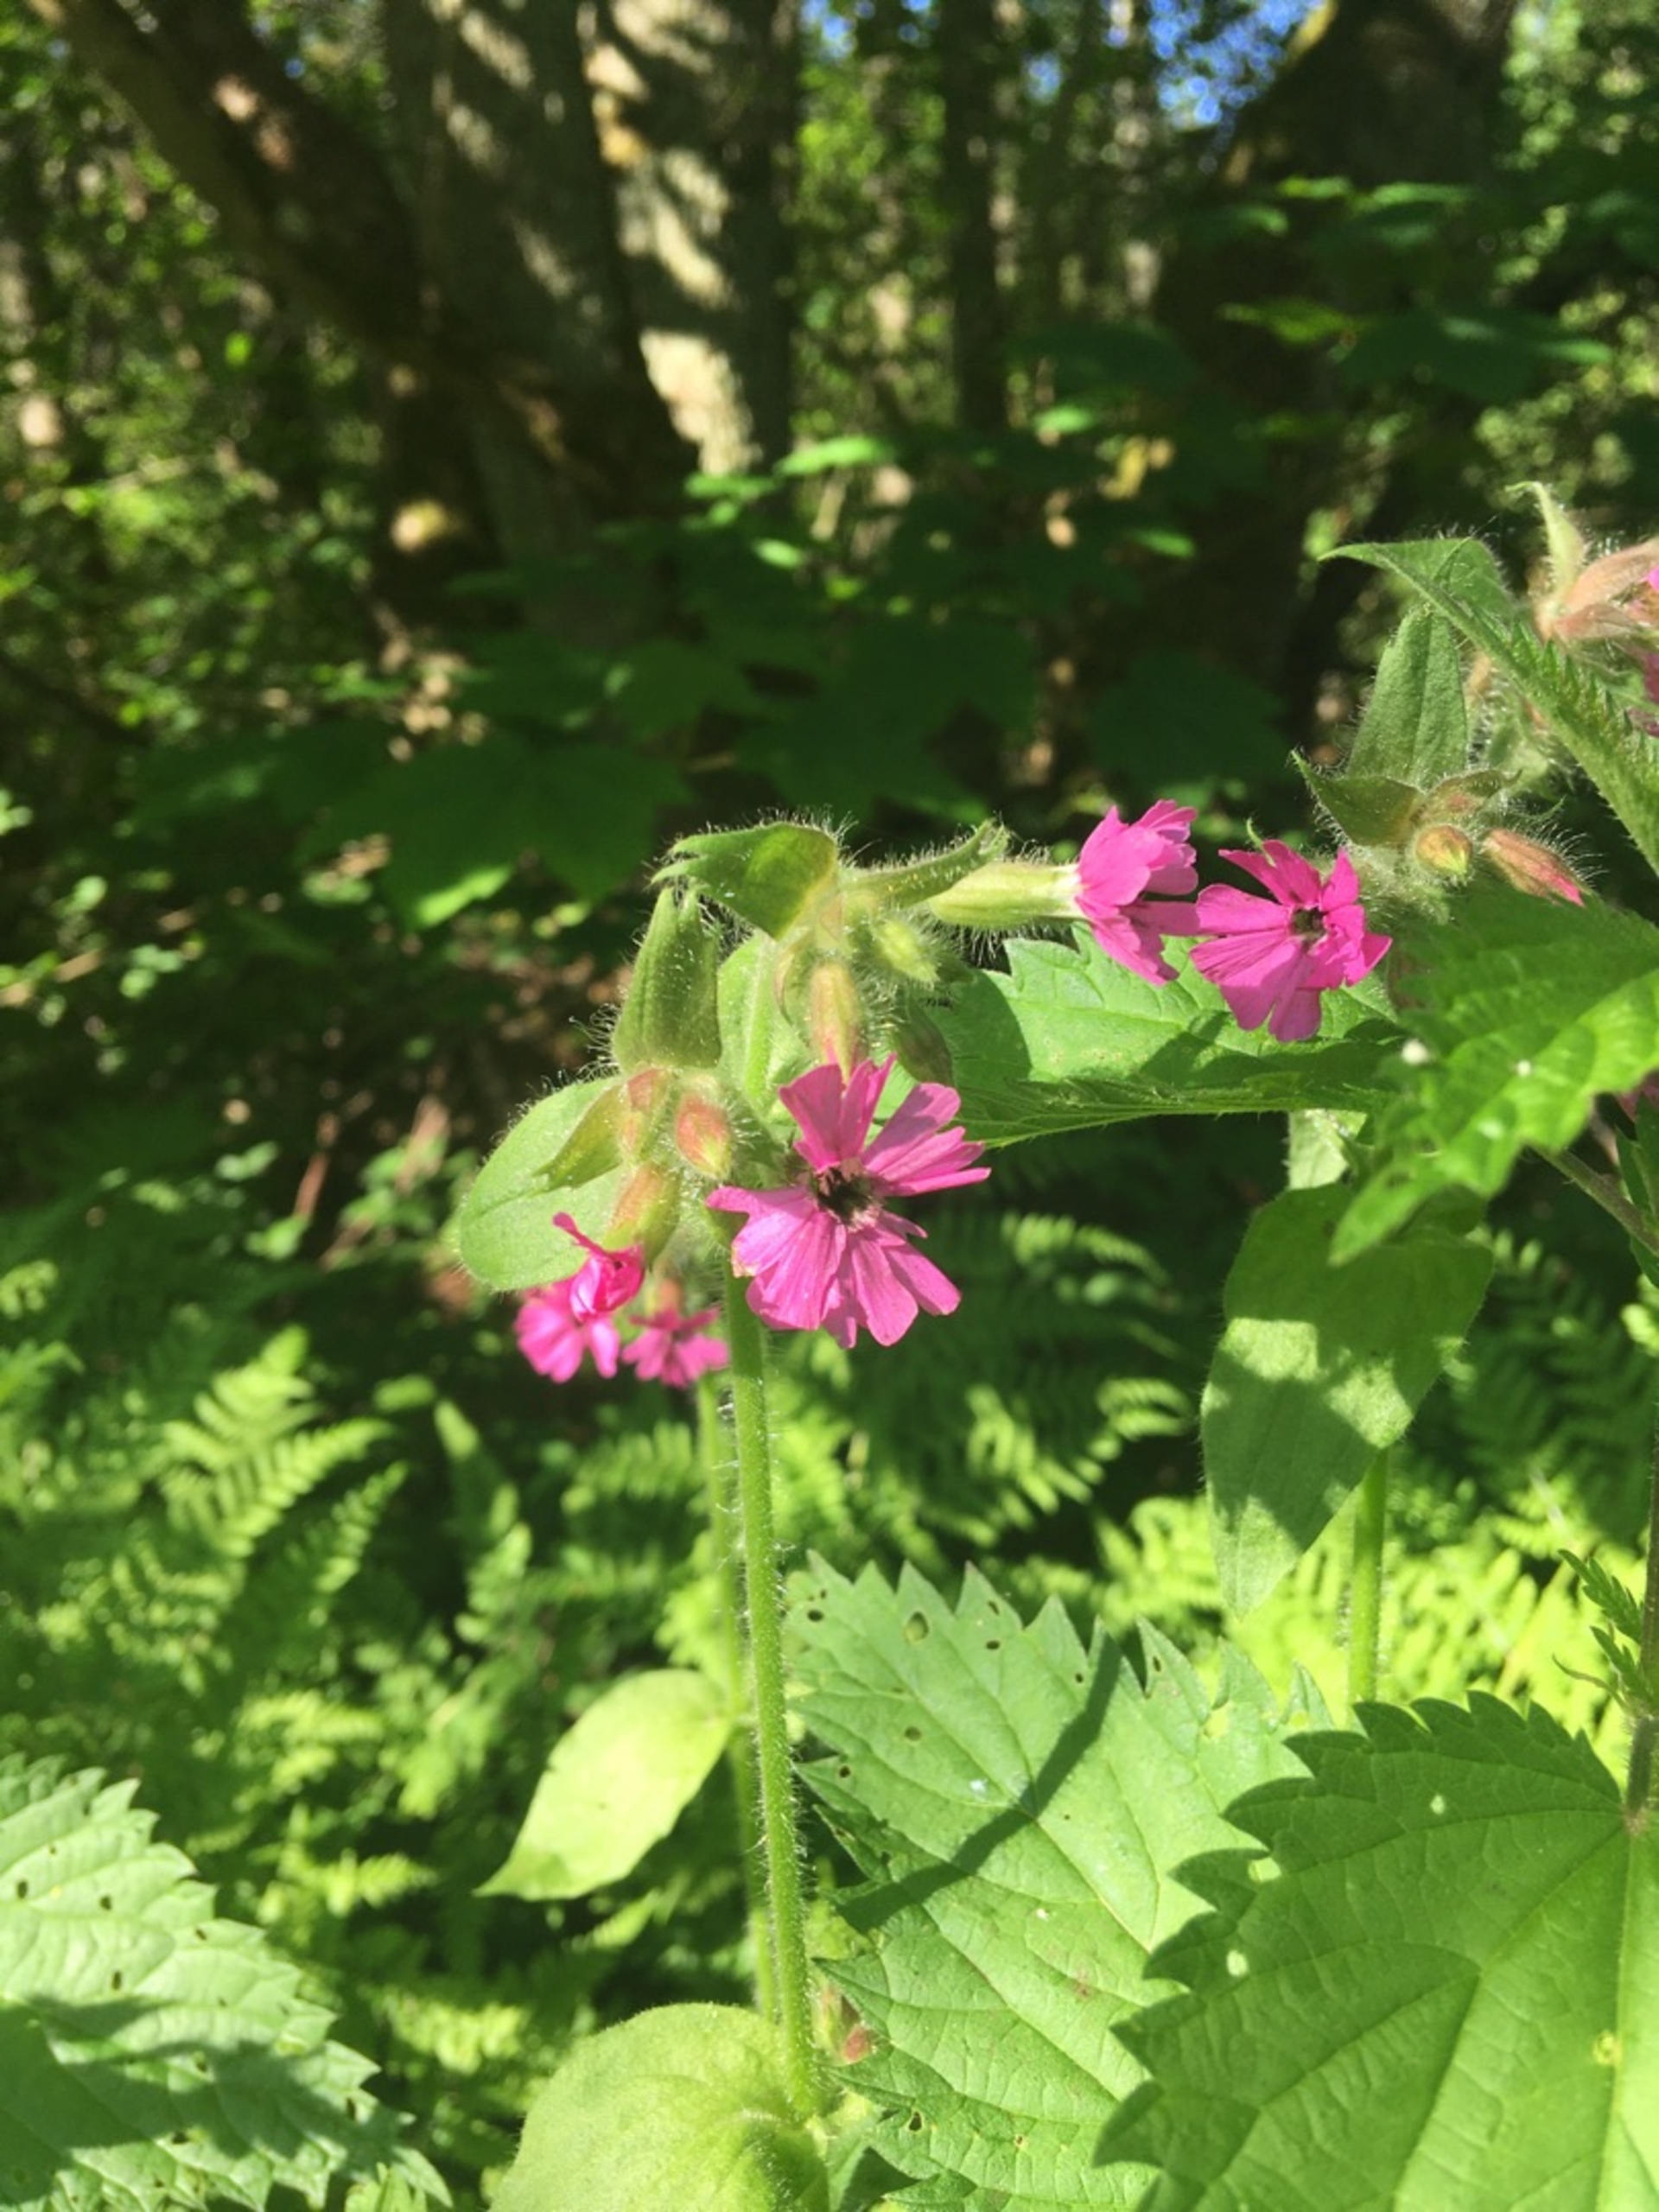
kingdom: Plantae
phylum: Tracheophyta
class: Magnoliopsida
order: Caryophyllales
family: Caryophyllaceae
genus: Silene
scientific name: Silene dioica
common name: Dagpragtstjerne
